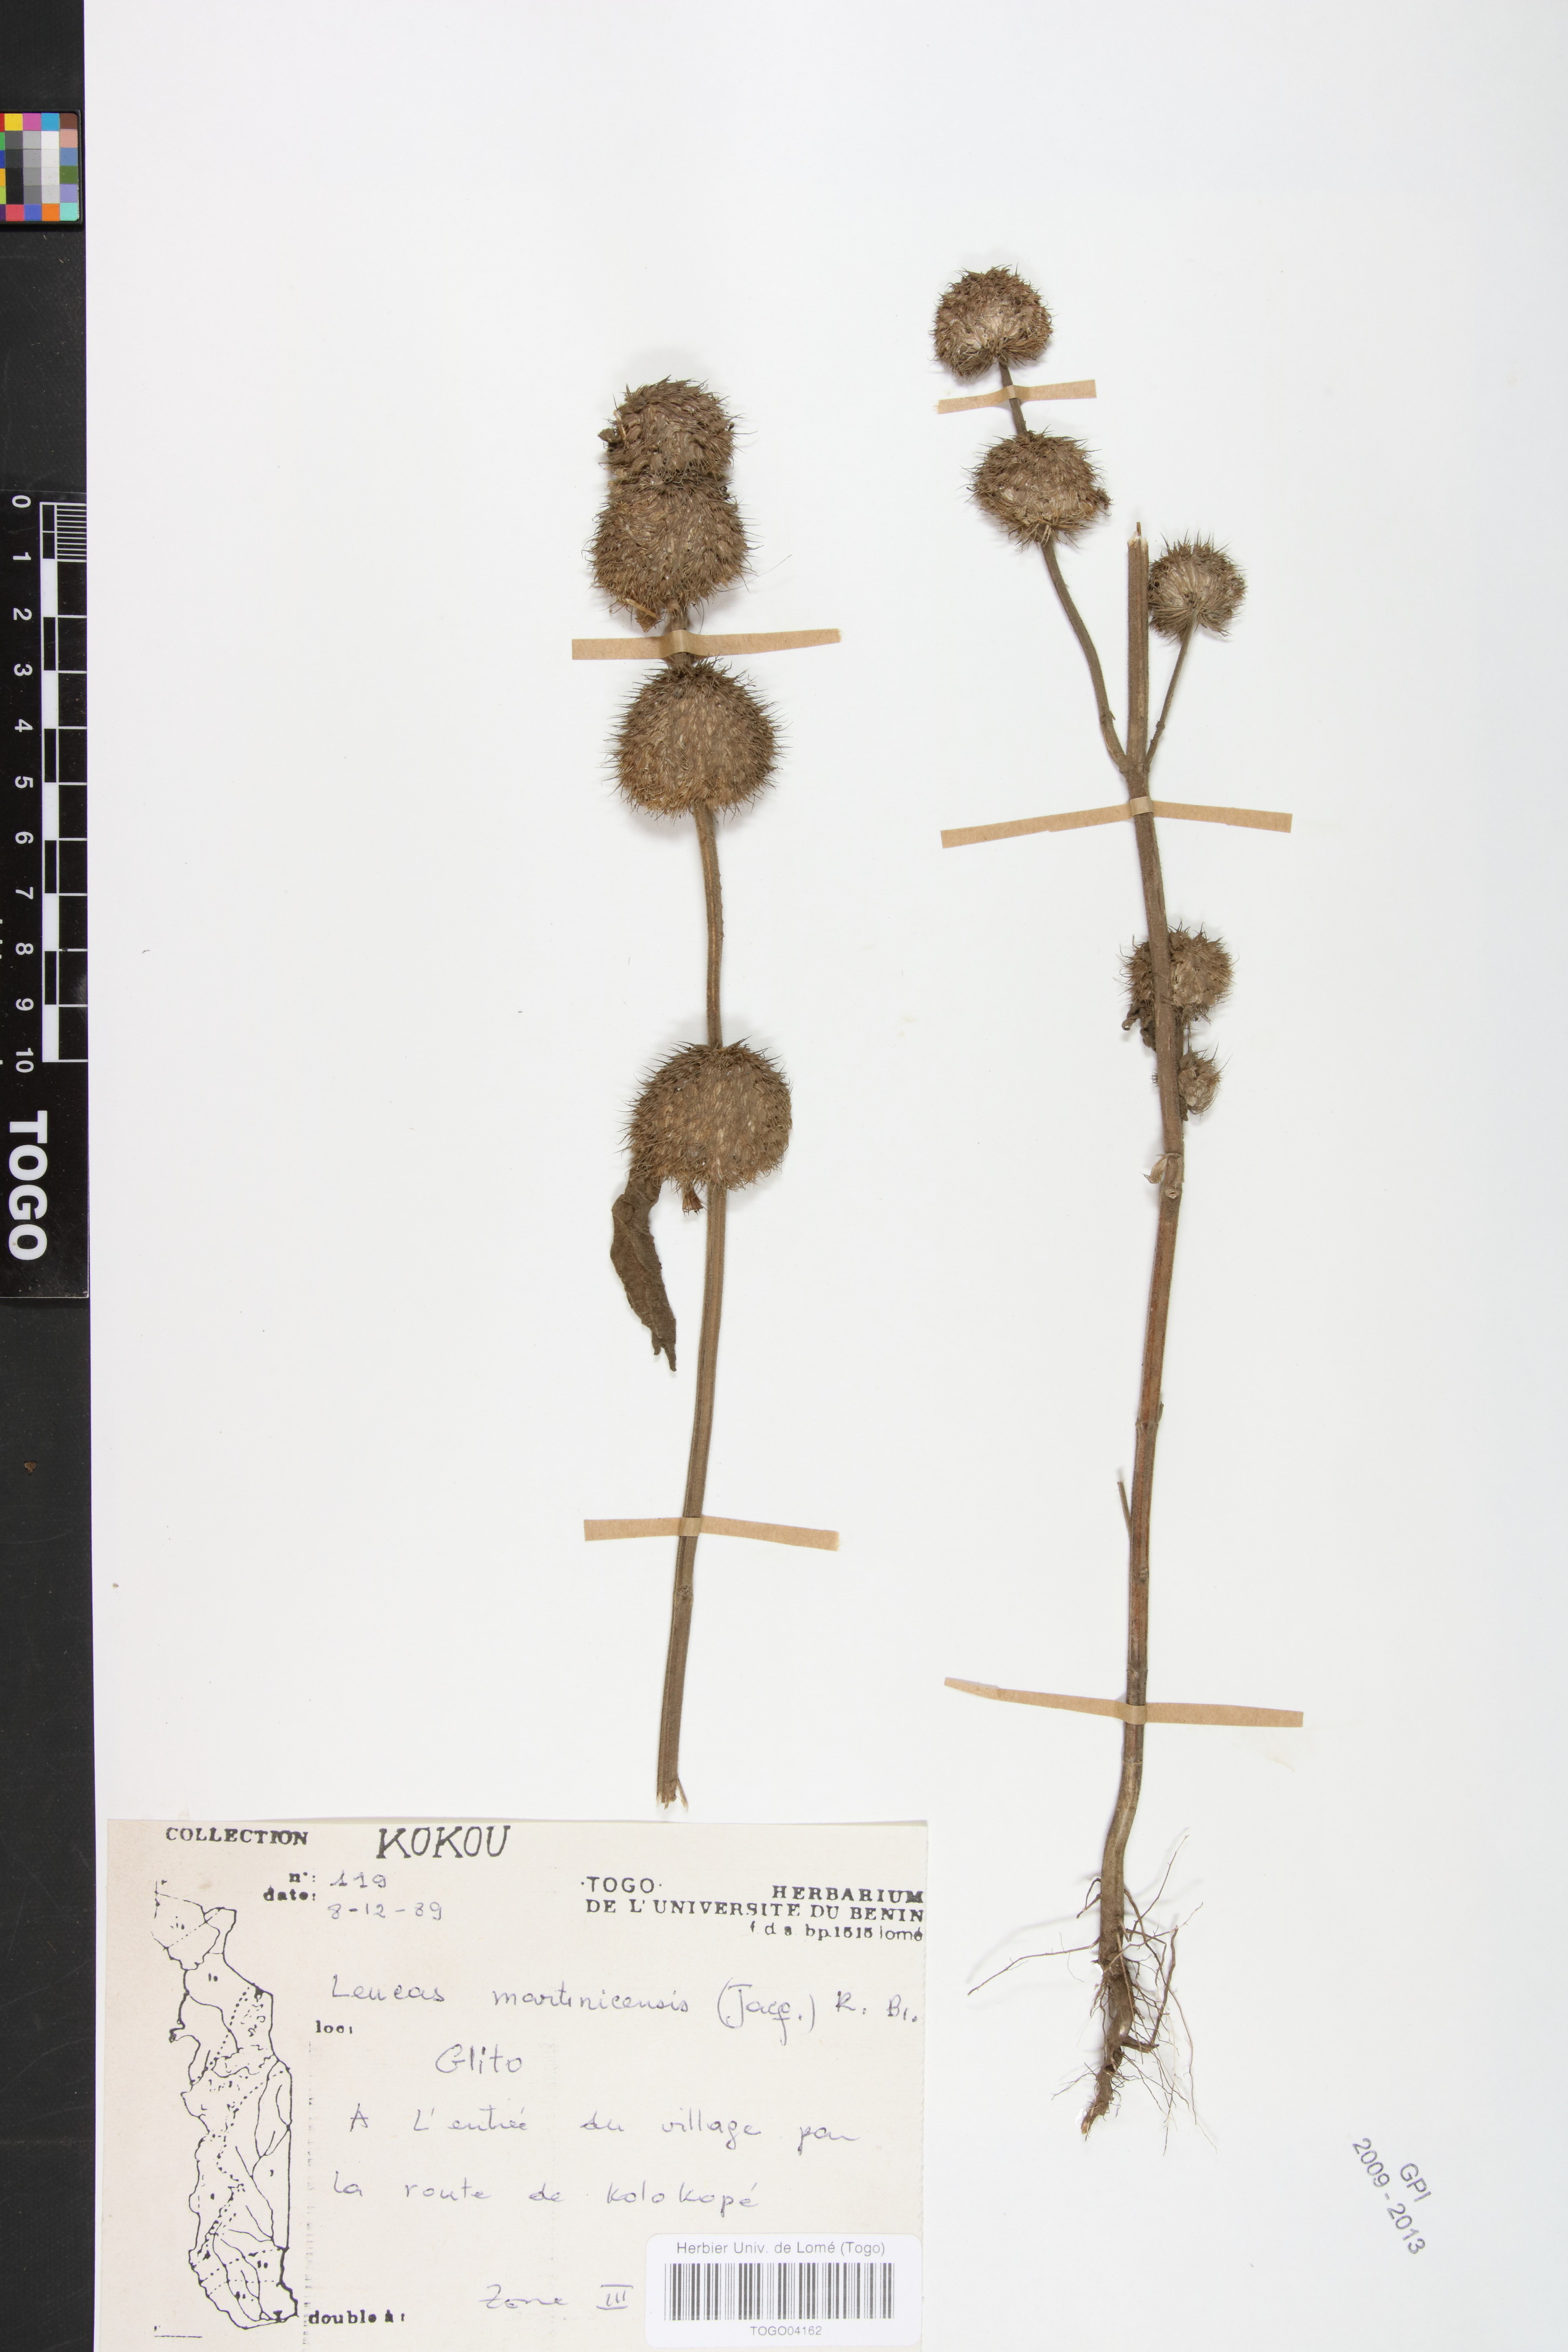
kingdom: Plantae
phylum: Tracheophyta
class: Magnoliopsida
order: Lamiales
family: Lamiaceae
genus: Leucas
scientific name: Leucas martinicensis
